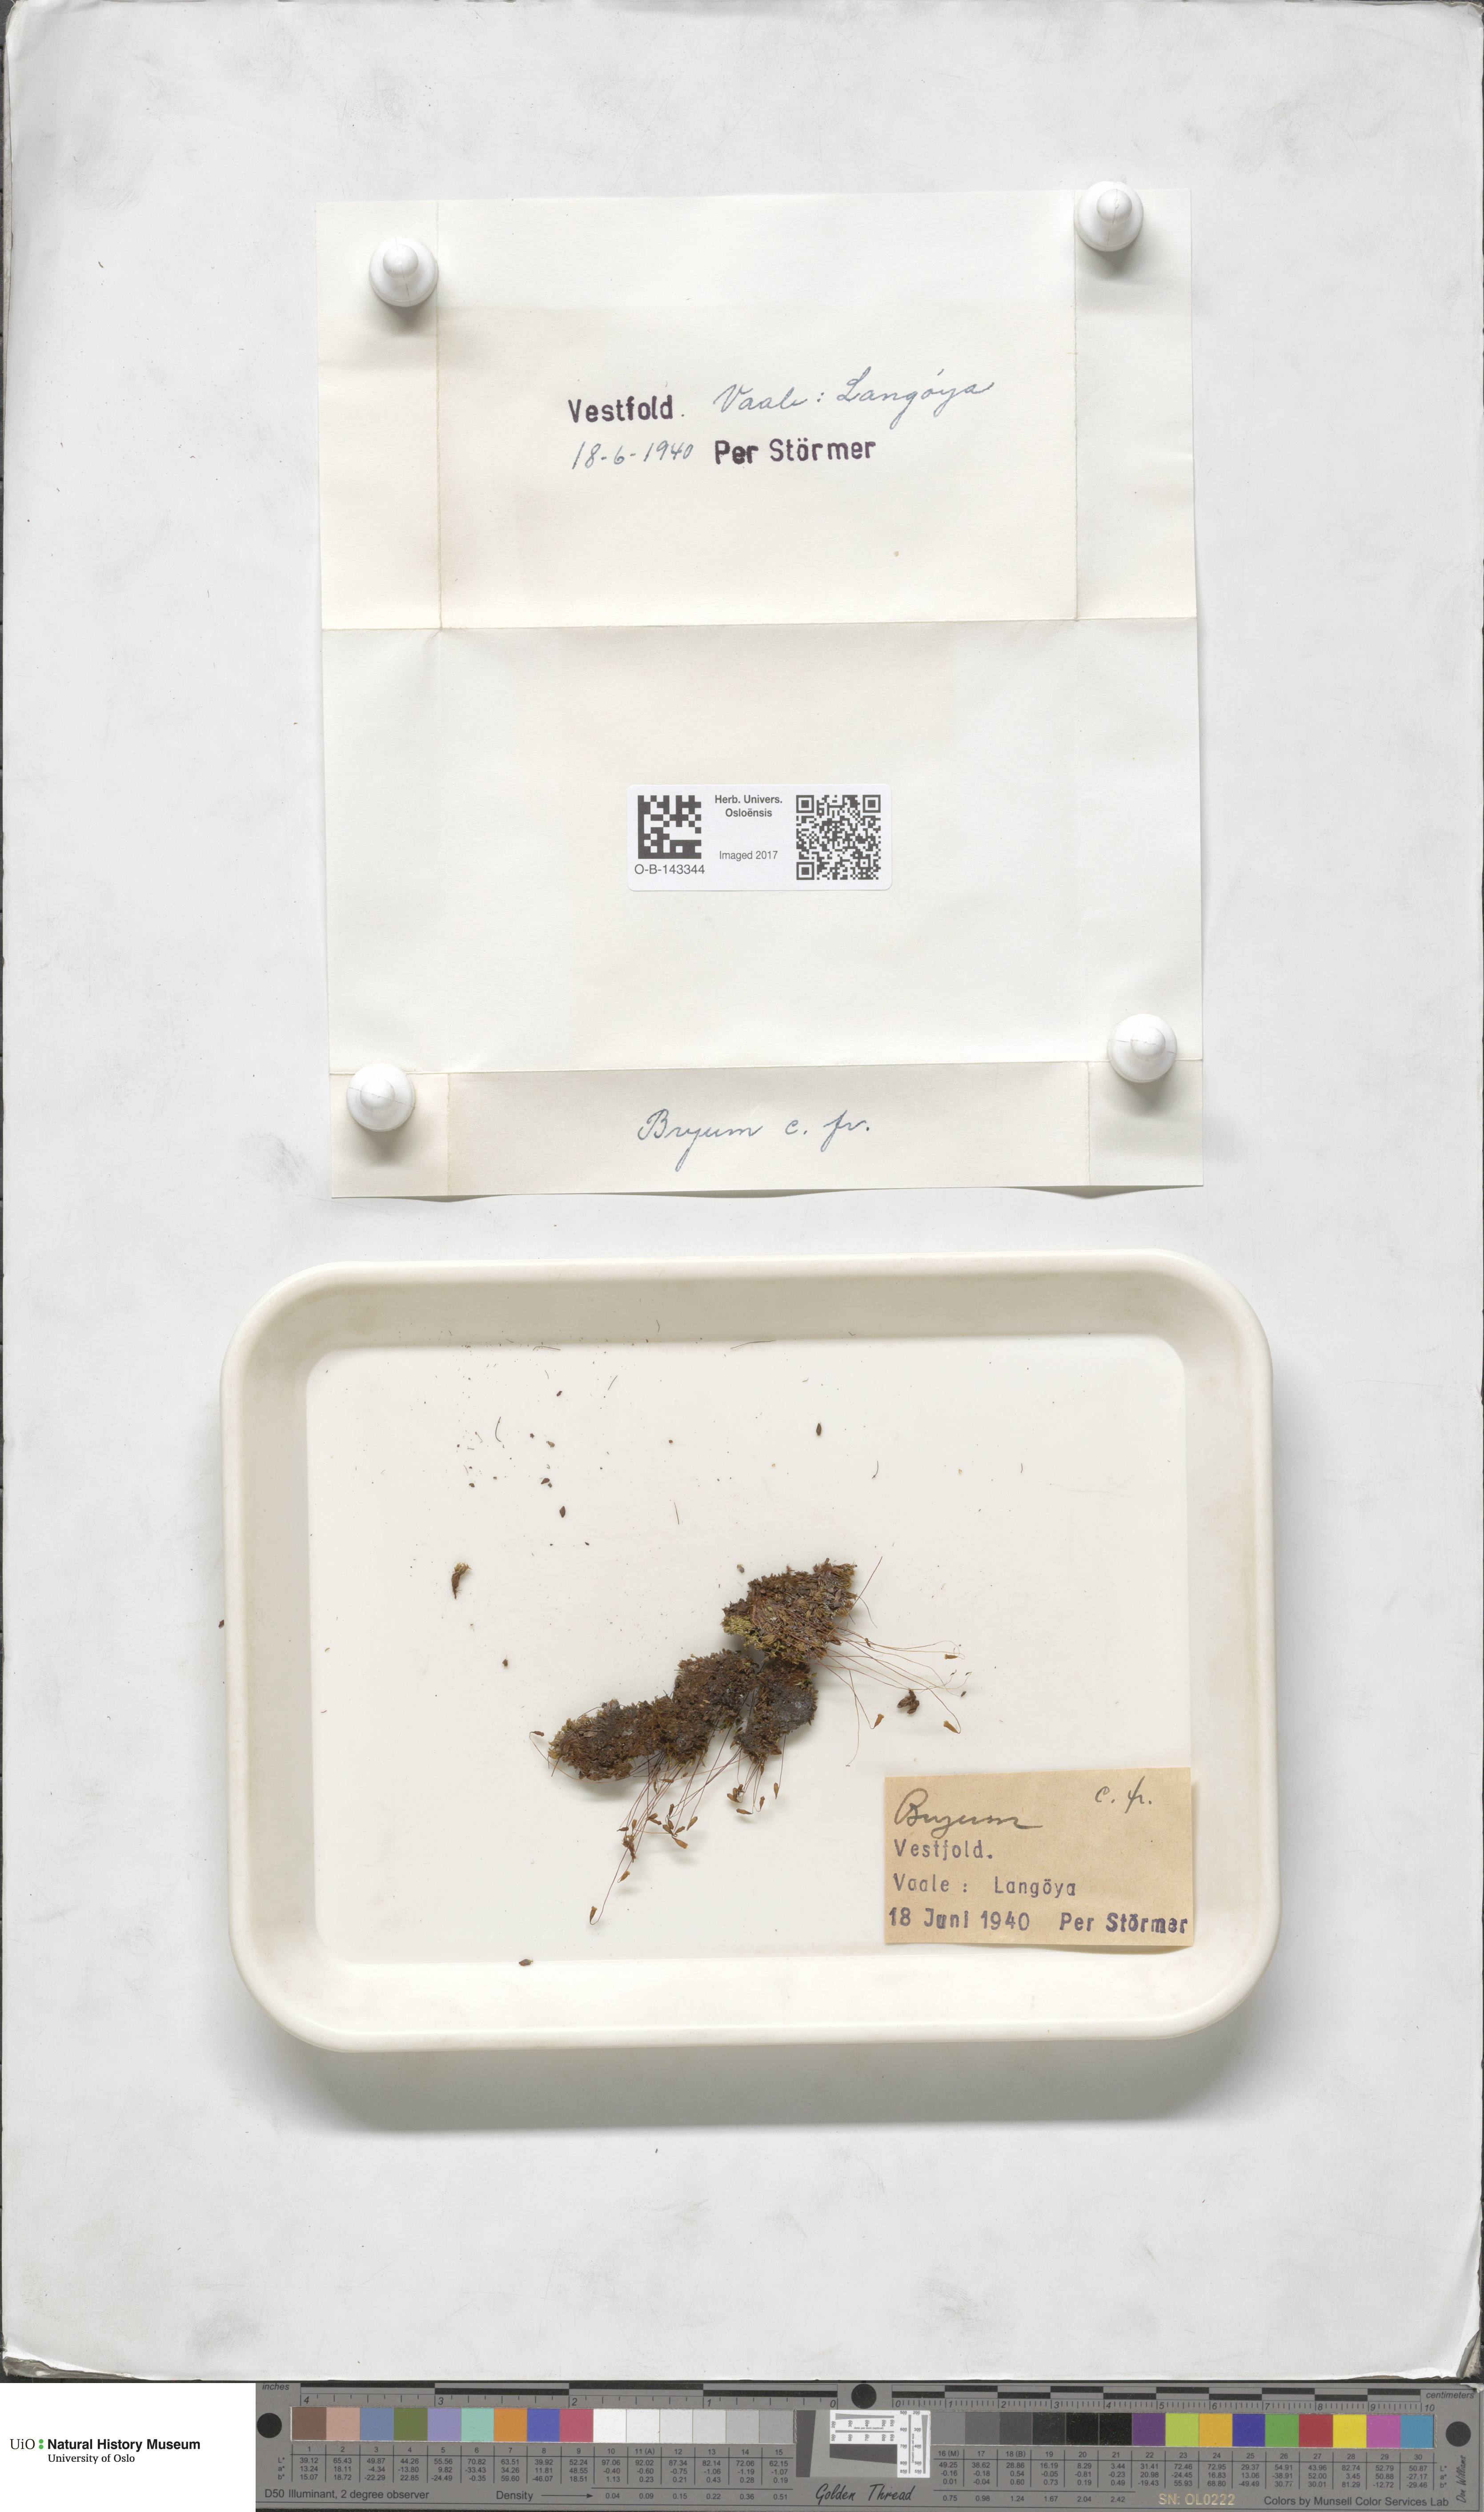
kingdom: Plantae
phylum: Bryophyta
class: Bryopsida
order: Bryales
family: Bryaceae
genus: Bryum
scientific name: Bryum
